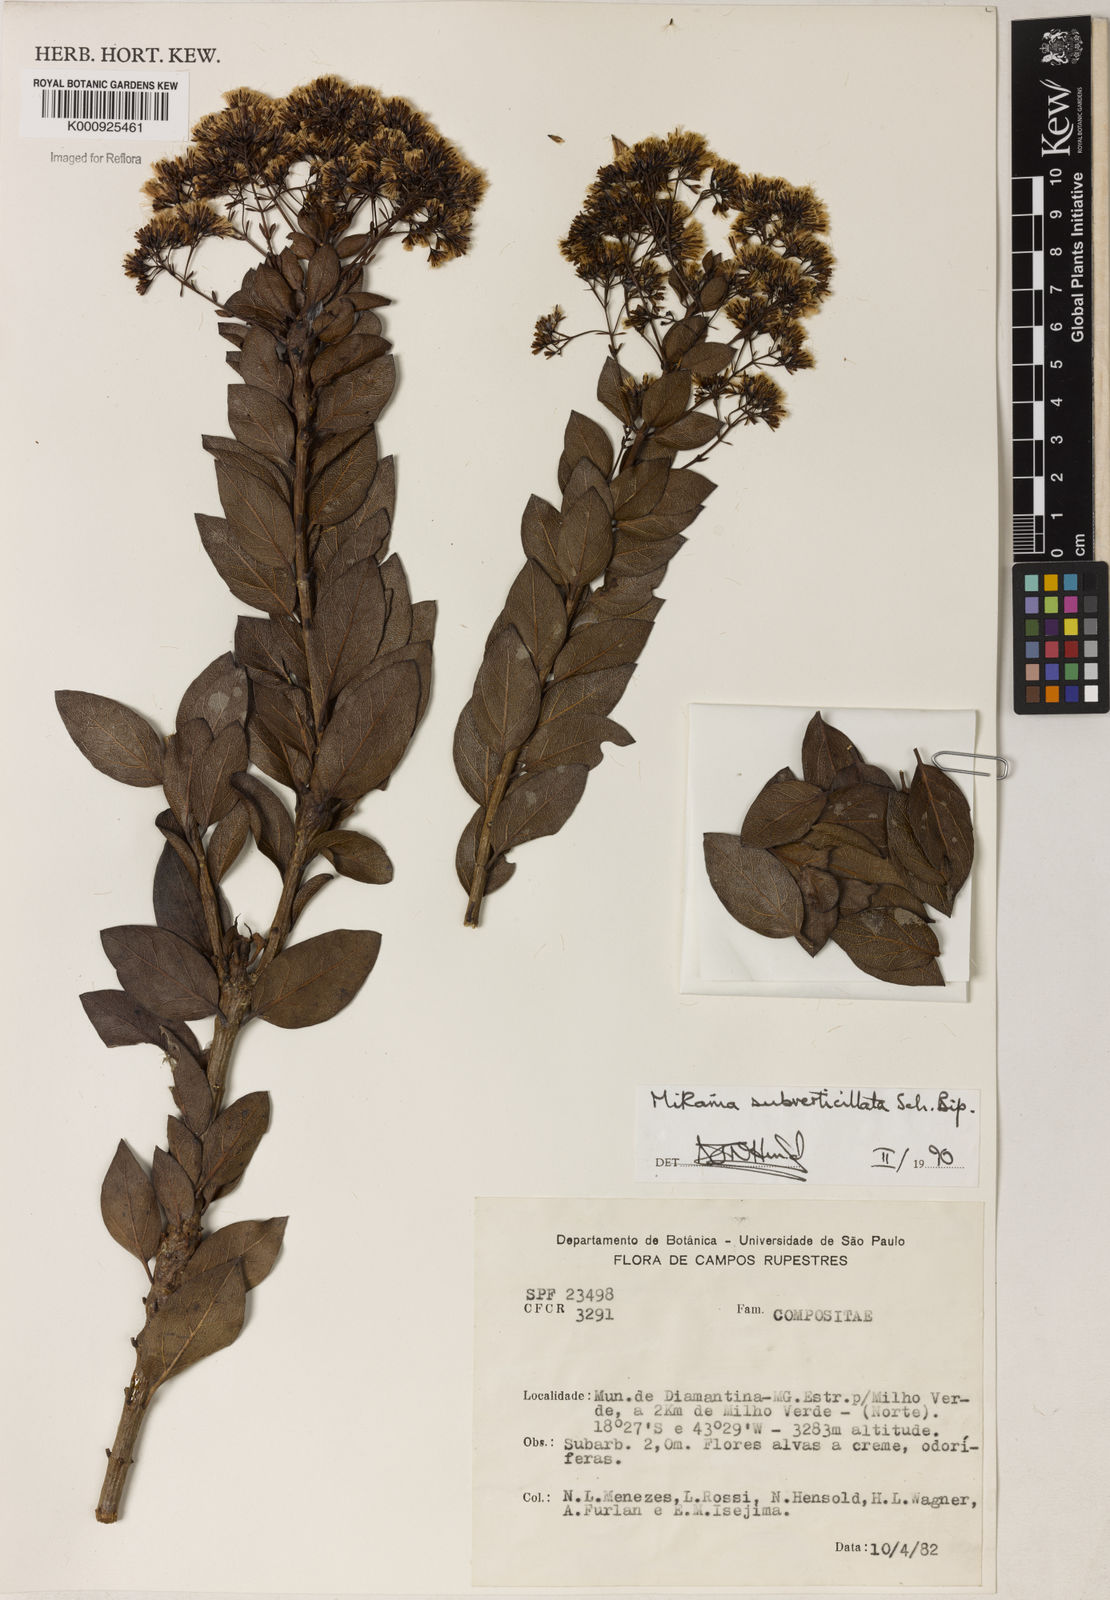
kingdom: Plantae
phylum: Tracheophyta
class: Magnoliopsida
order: Asterales
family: Asteraceae
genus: Mikania
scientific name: Mikania
